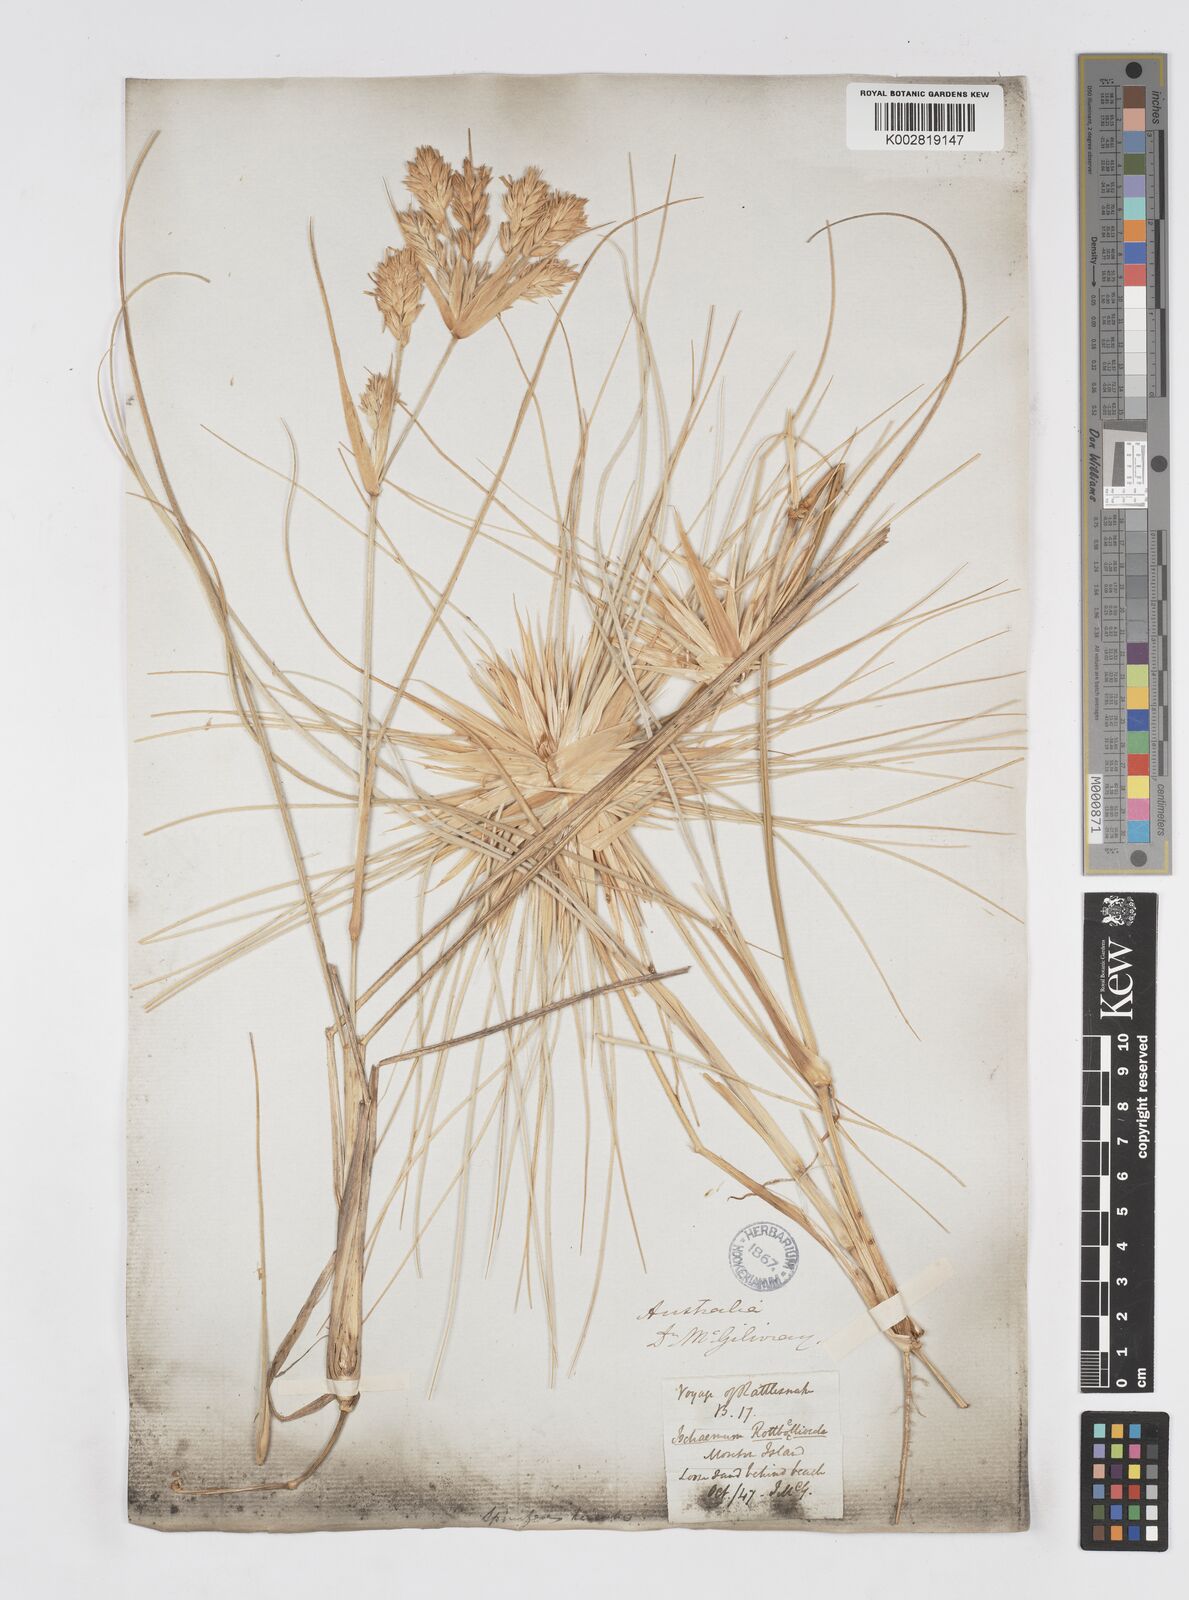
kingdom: Plantae
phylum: Tracheophyta
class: Liliopsida
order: Poales
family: Poaceae
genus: Spinifex
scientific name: Spinifex hirsutus
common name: Hairy spinifex
